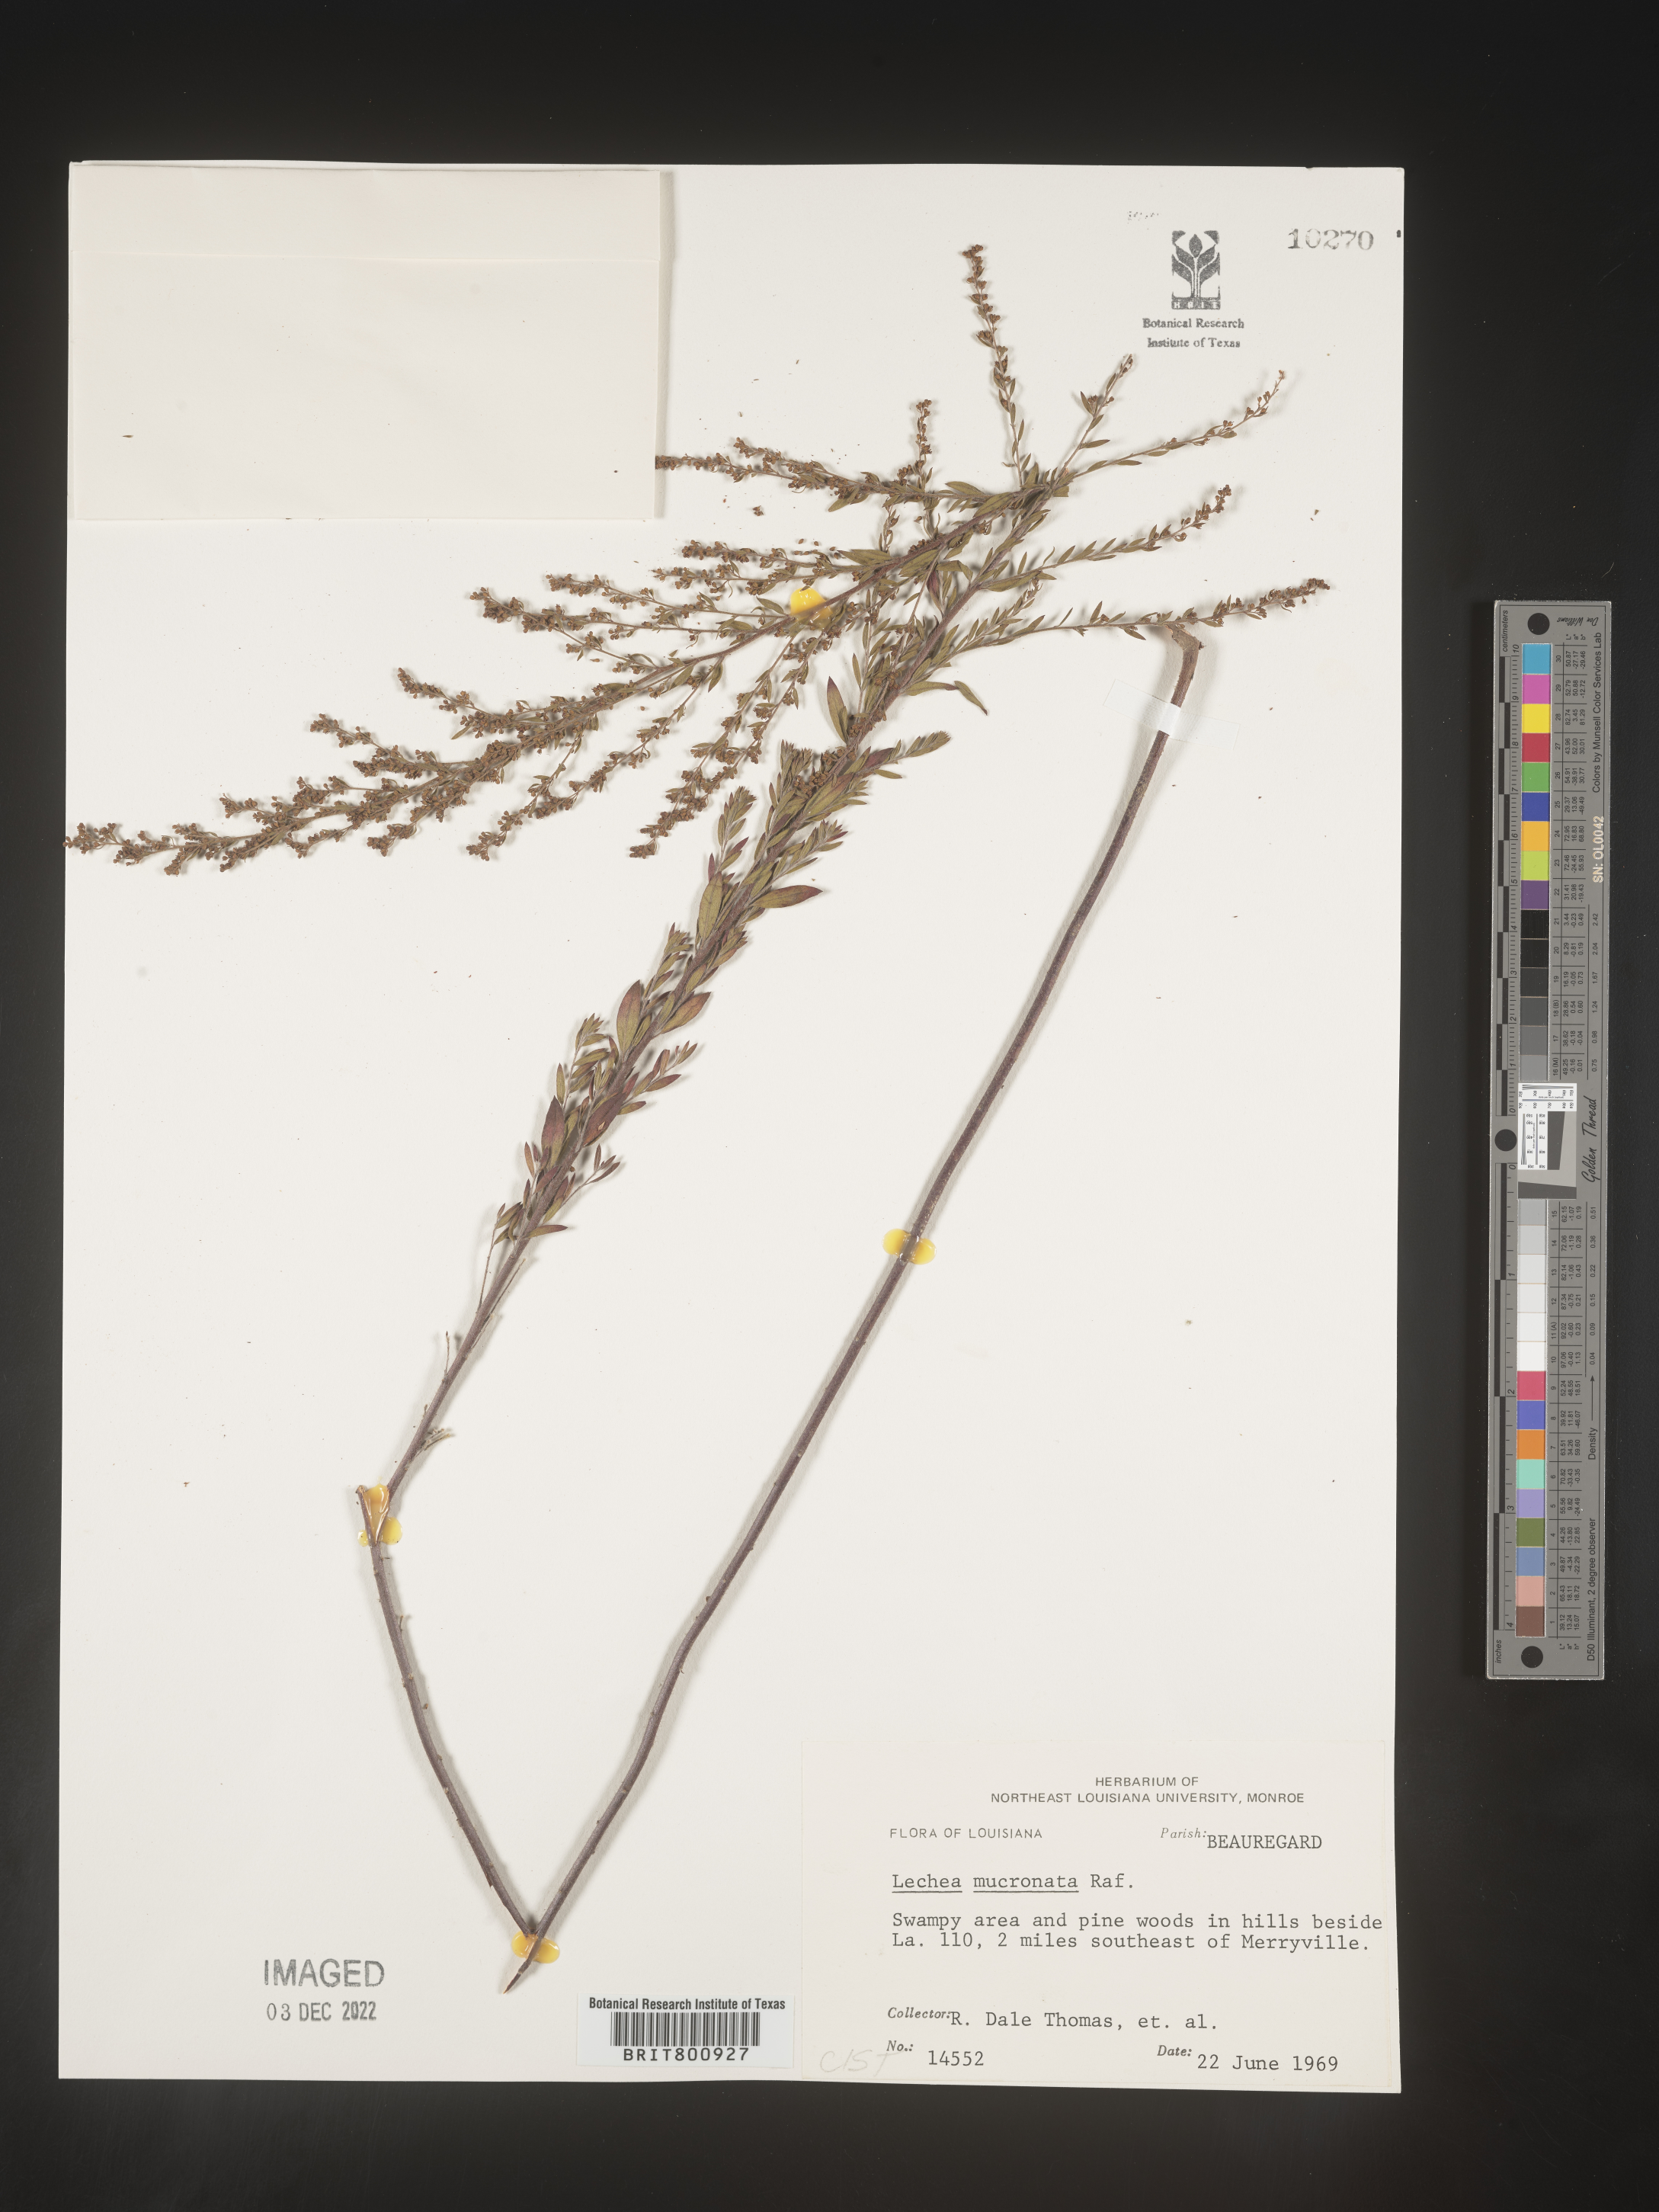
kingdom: Plantae
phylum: Tracheophyta
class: Magnoliopsida
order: Malvales
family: Cistaceae
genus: Lechea
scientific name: Lechea mucronata
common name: Hairy pinweed
